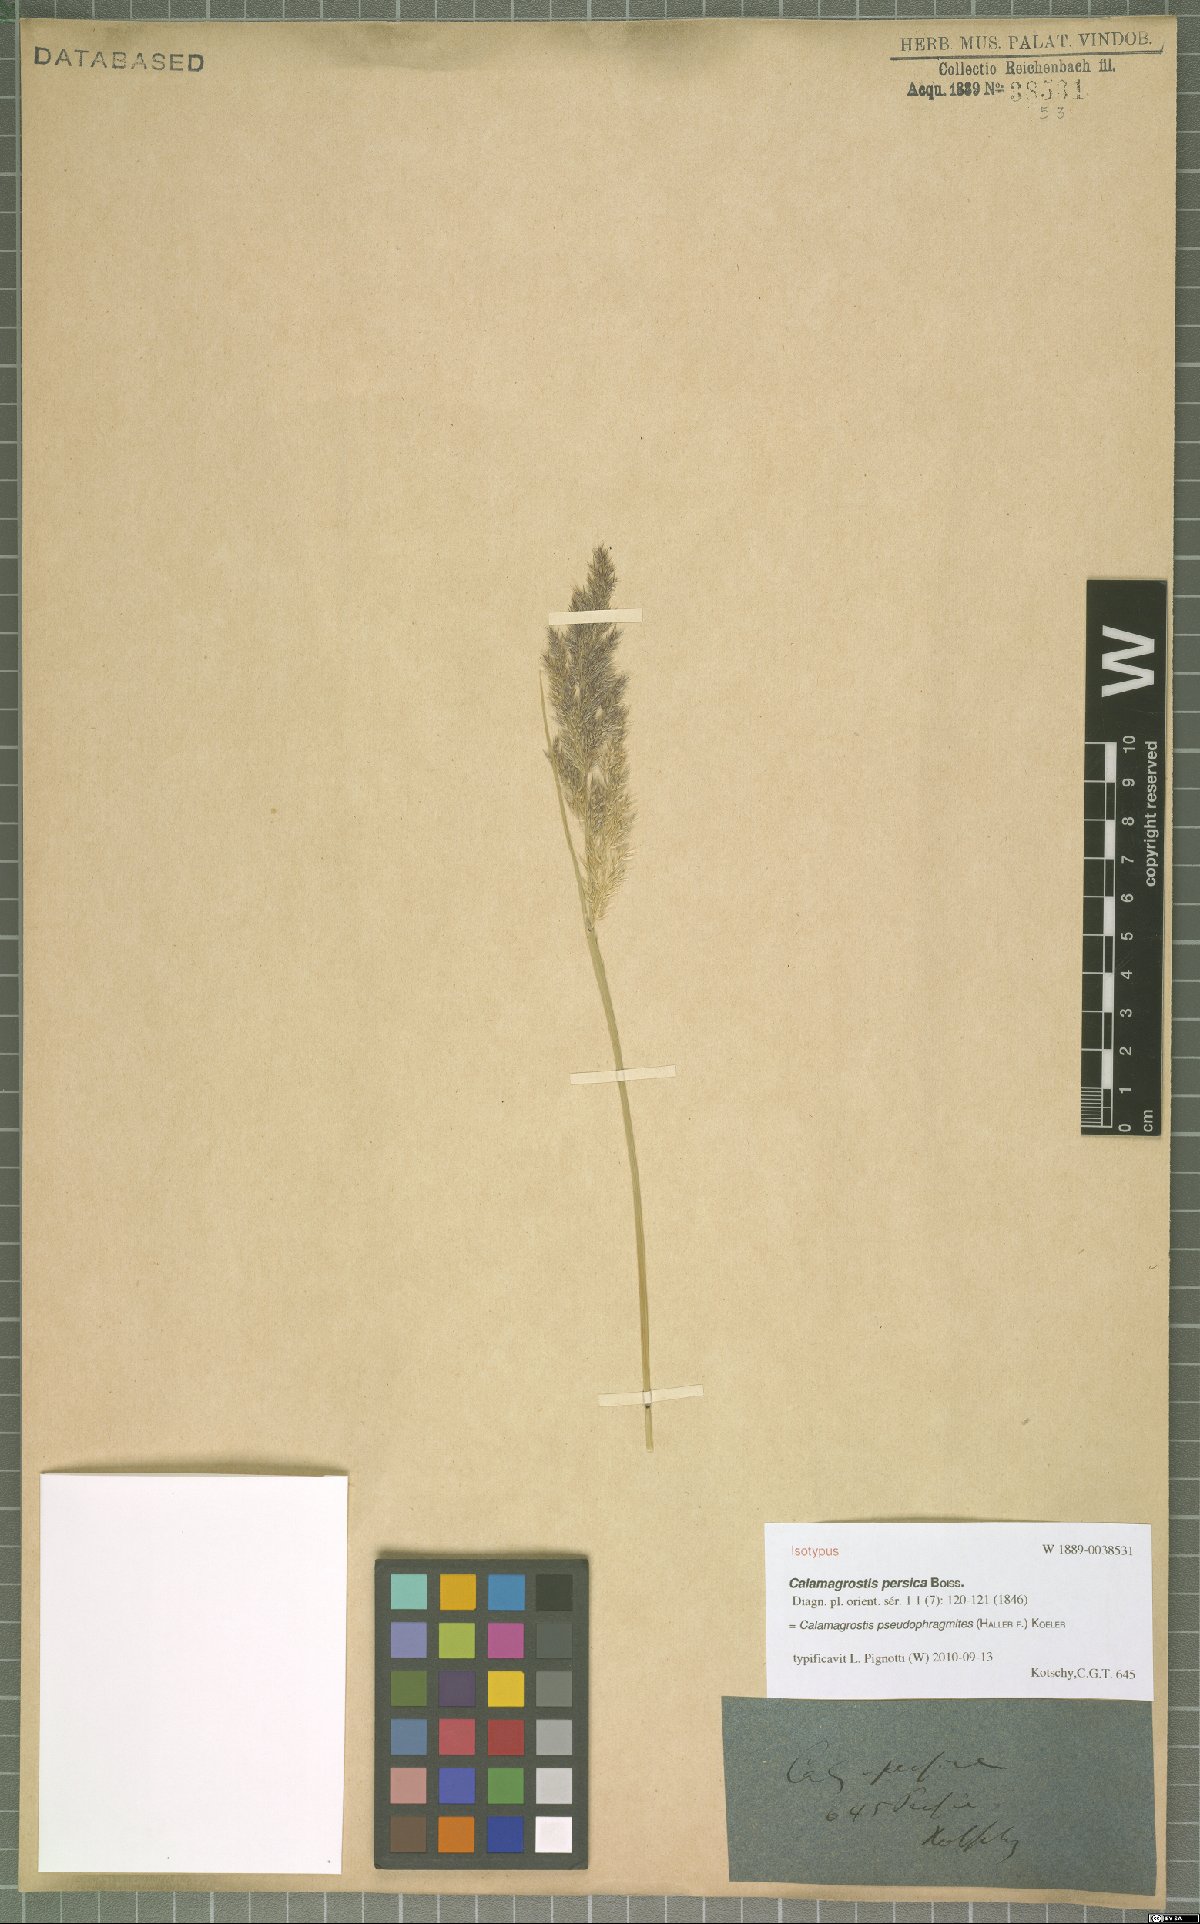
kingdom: Plantae
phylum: Tracheophyta
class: Liliopsida
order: Poales
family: Poaceae
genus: Calamagrostis
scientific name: Calamagrostis pseudophragmites
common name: Coastal small-reed
